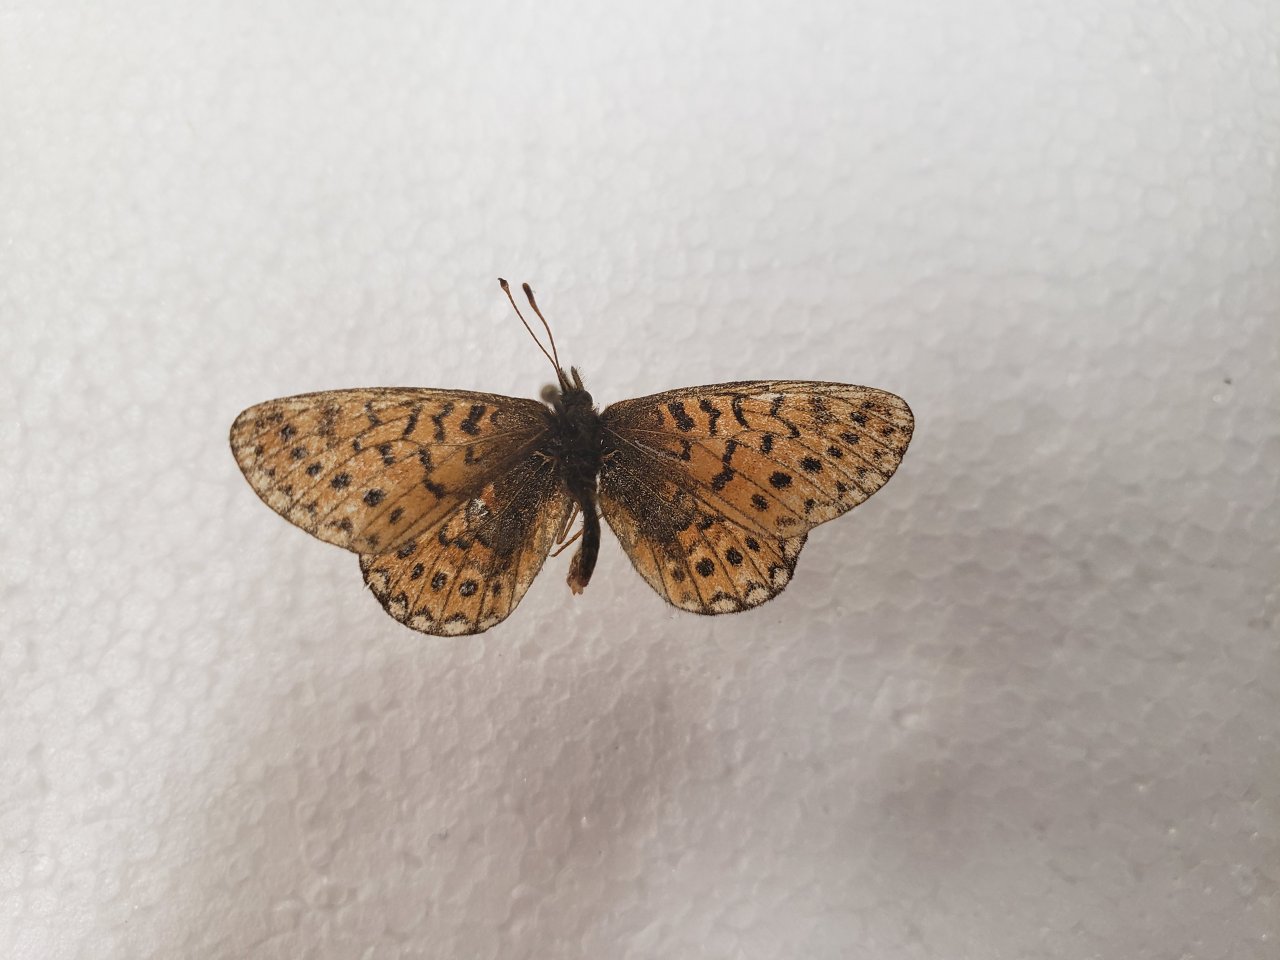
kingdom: Animalia
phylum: Arthropoda
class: Insecta
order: Lepidoptera
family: Nymphalidae
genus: Phyciodes
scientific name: Phyciodes
